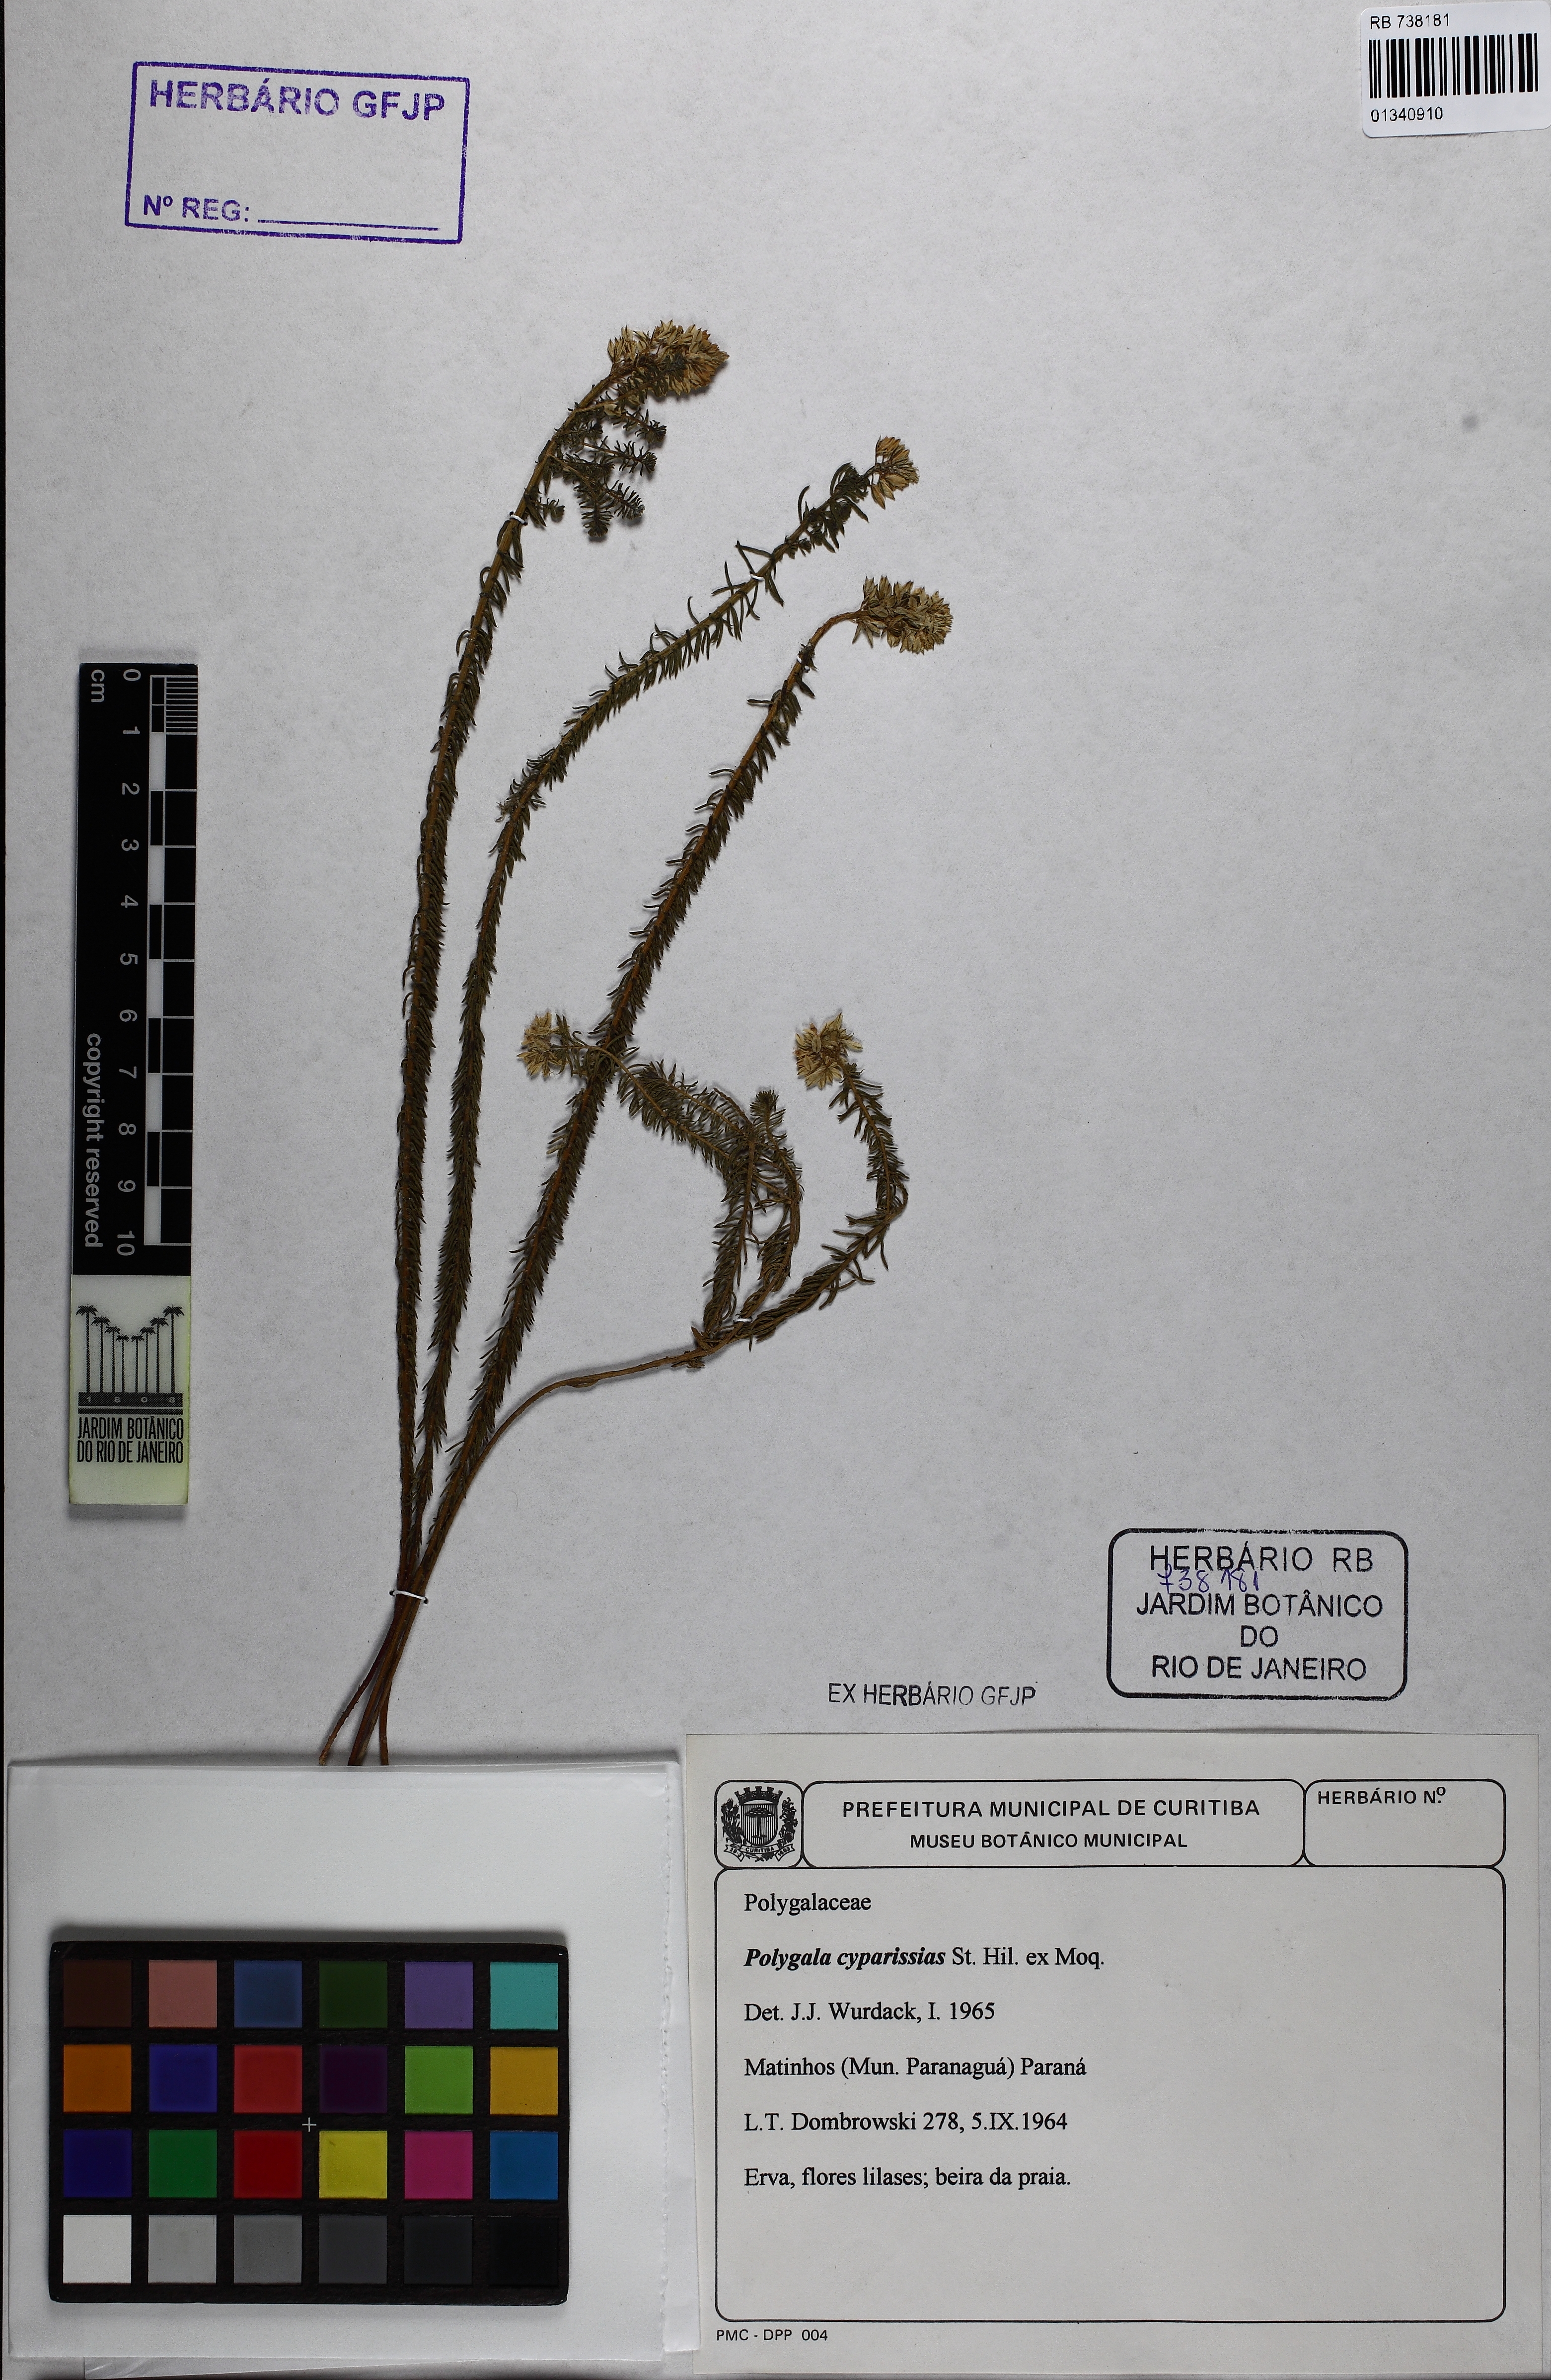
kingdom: Plantae
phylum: Tracheophyta
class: Magnoliopsida
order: Fabales
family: Polygalaceae
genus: Polygala
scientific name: Polygala cyparissias
